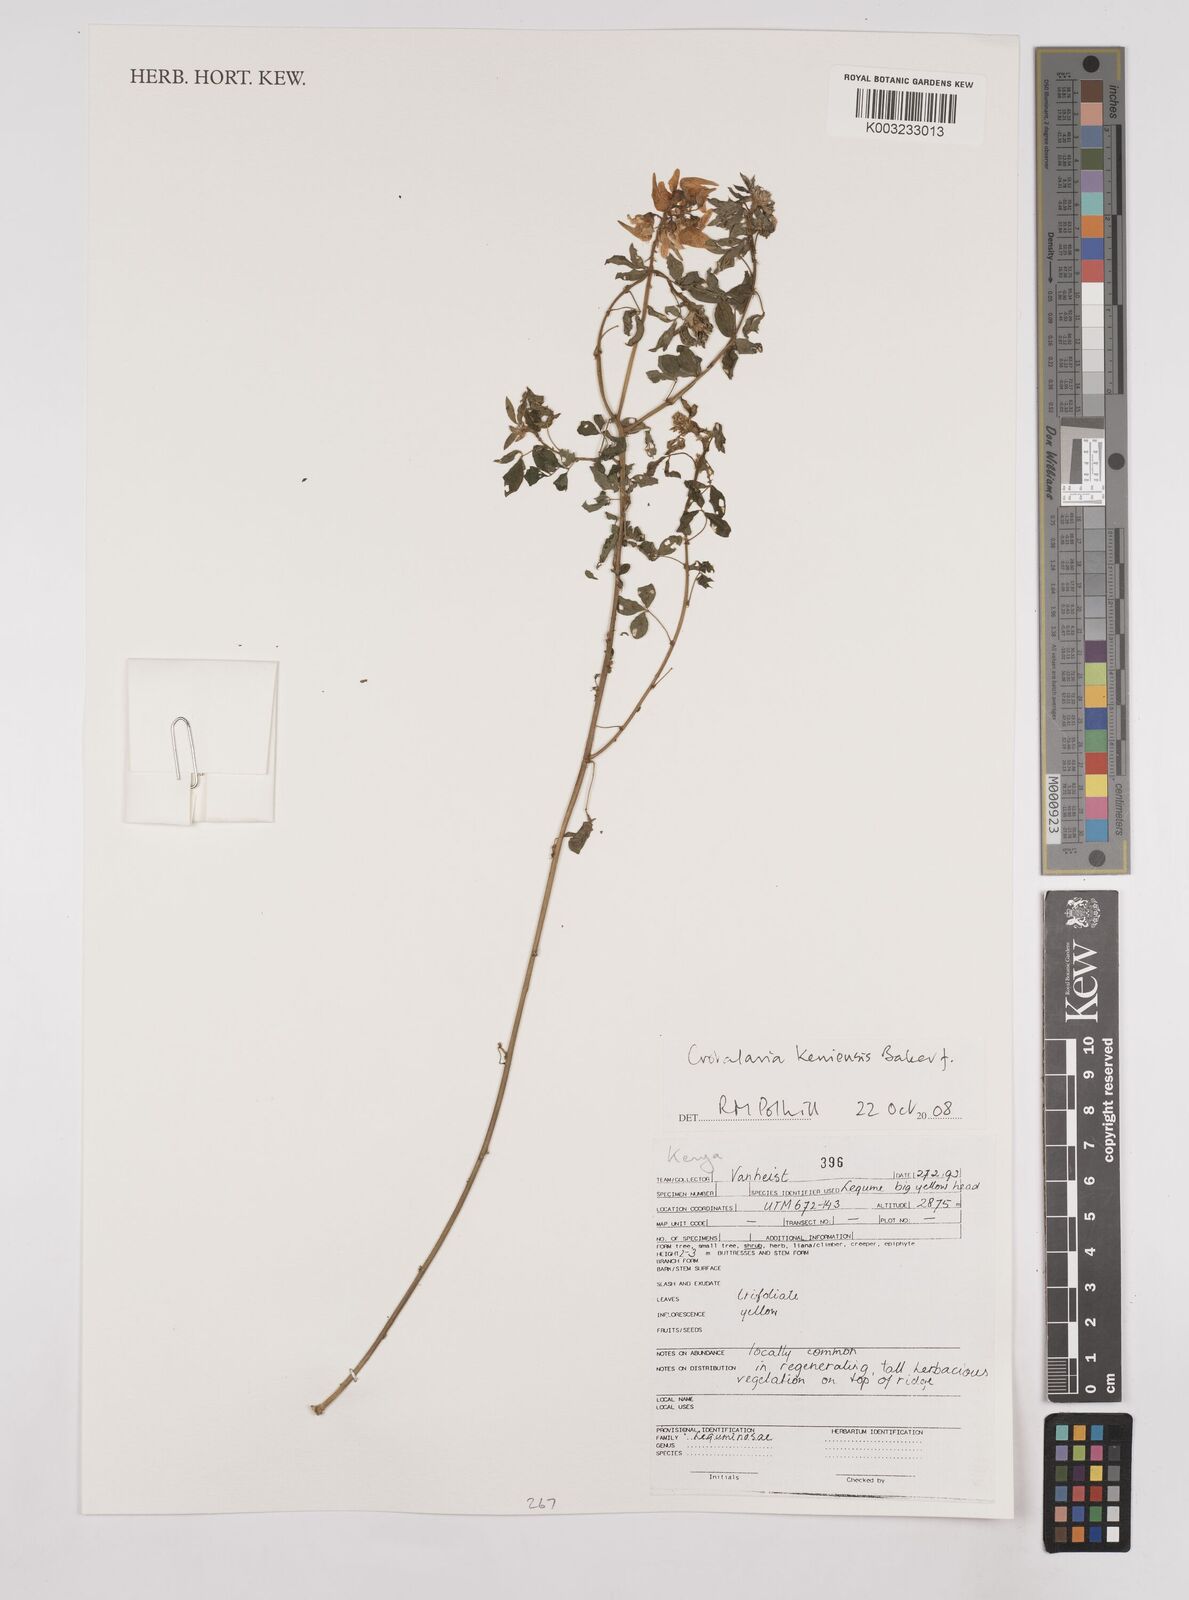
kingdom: Plantae
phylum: Tracheophyta
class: Magnoliopsida
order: Fabales
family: Fabaceae
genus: Crotalaria
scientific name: Crotalaria keniensis
